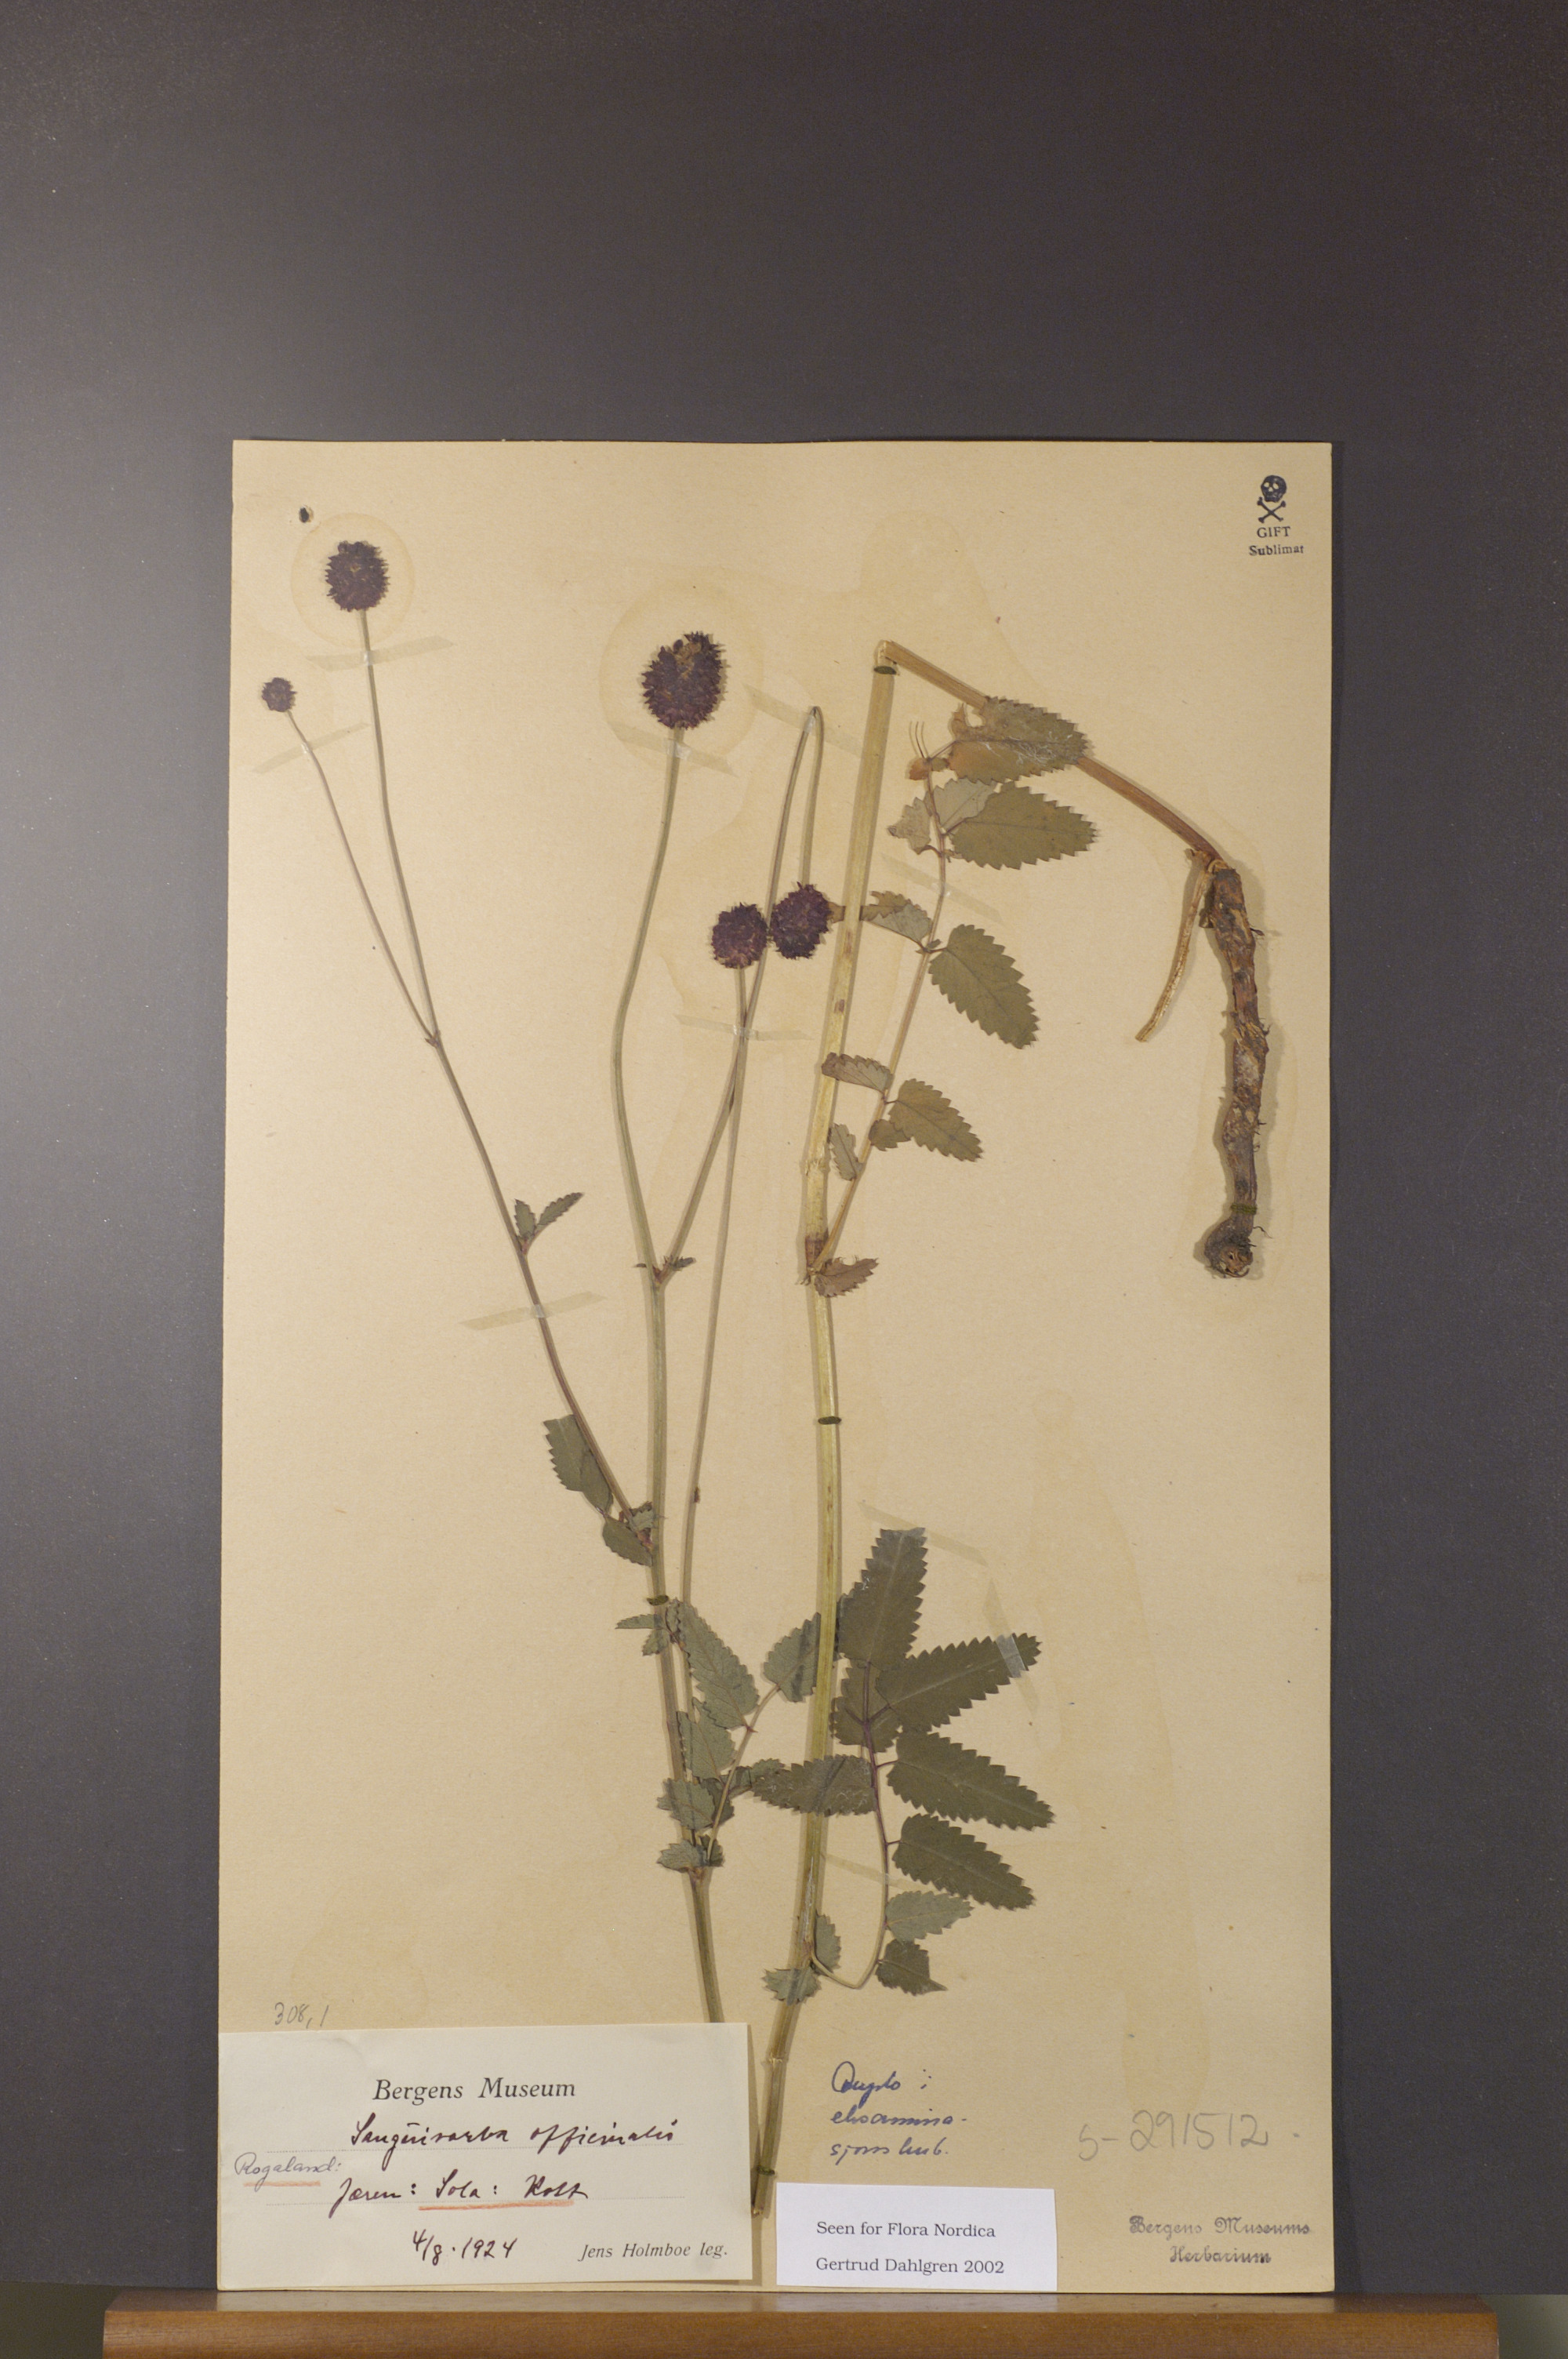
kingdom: Plantae
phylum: Tracheophyta
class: Magnoliopsida
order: Rosales
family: Rosaceae
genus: Sanguisorba
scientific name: Sanguisorba officinalis
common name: Great burnet
